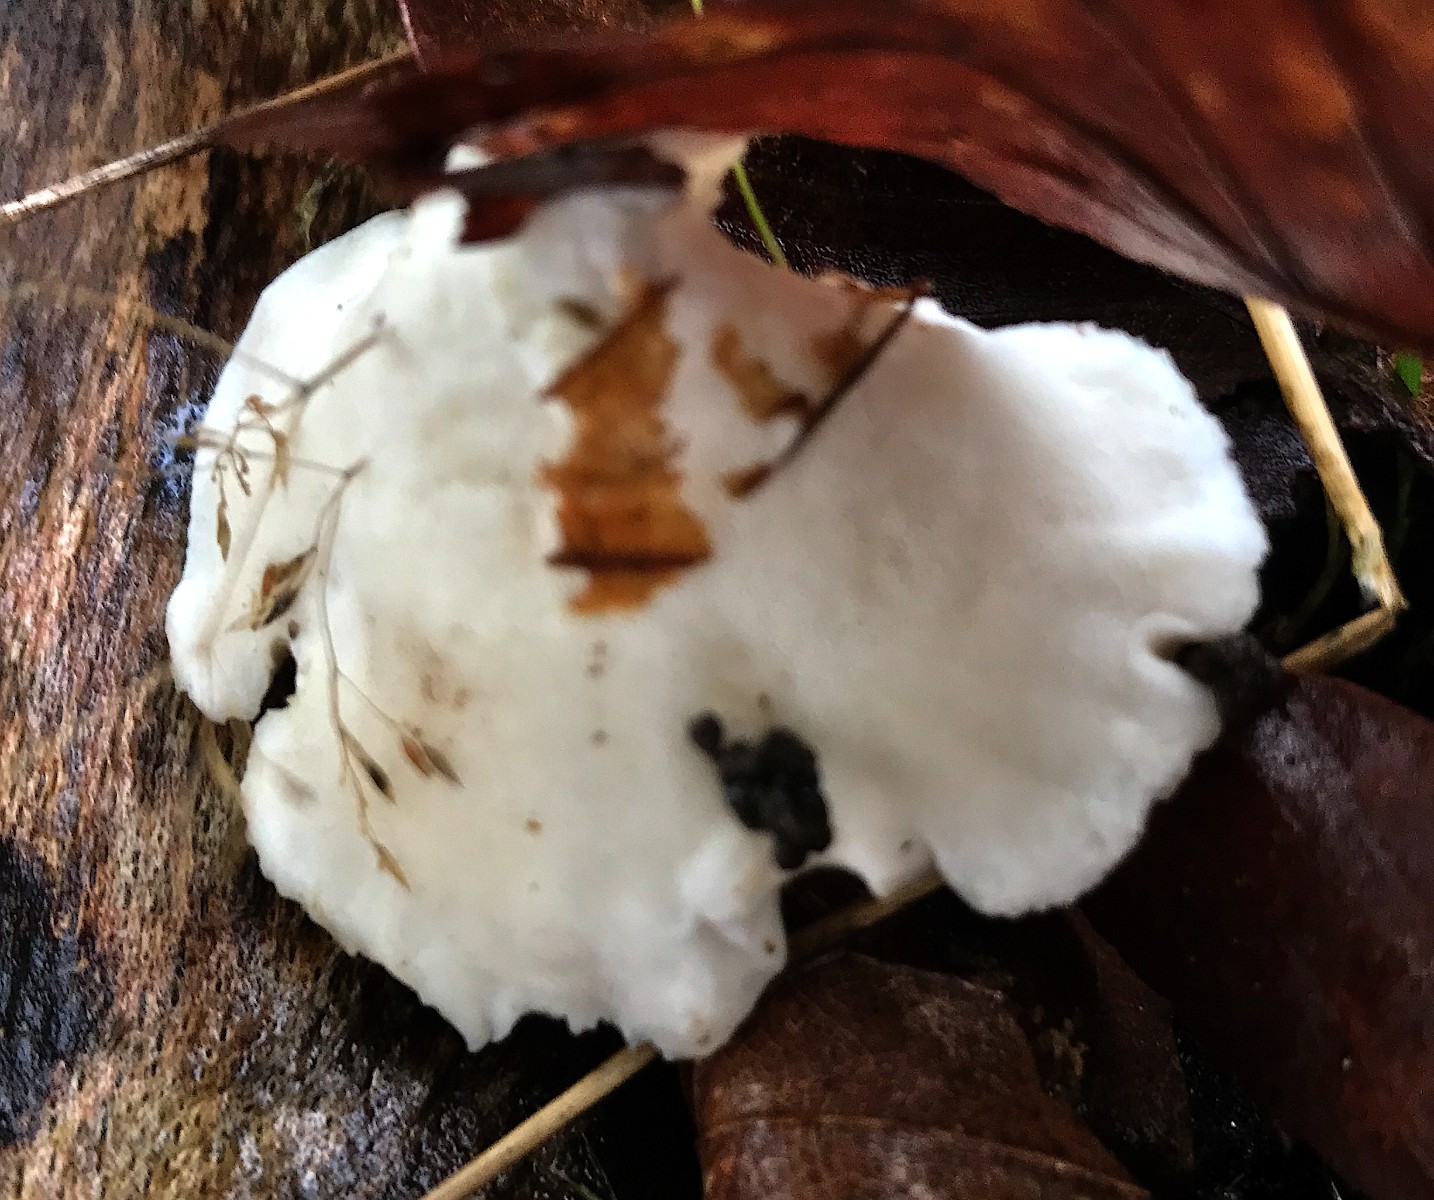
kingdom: Fungi
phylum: Basidiomycota
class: Agaricomycetes
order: Polyporales
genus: Amaropostia
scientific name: Amaropostia stiptica
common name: bitter kødporesvamp
